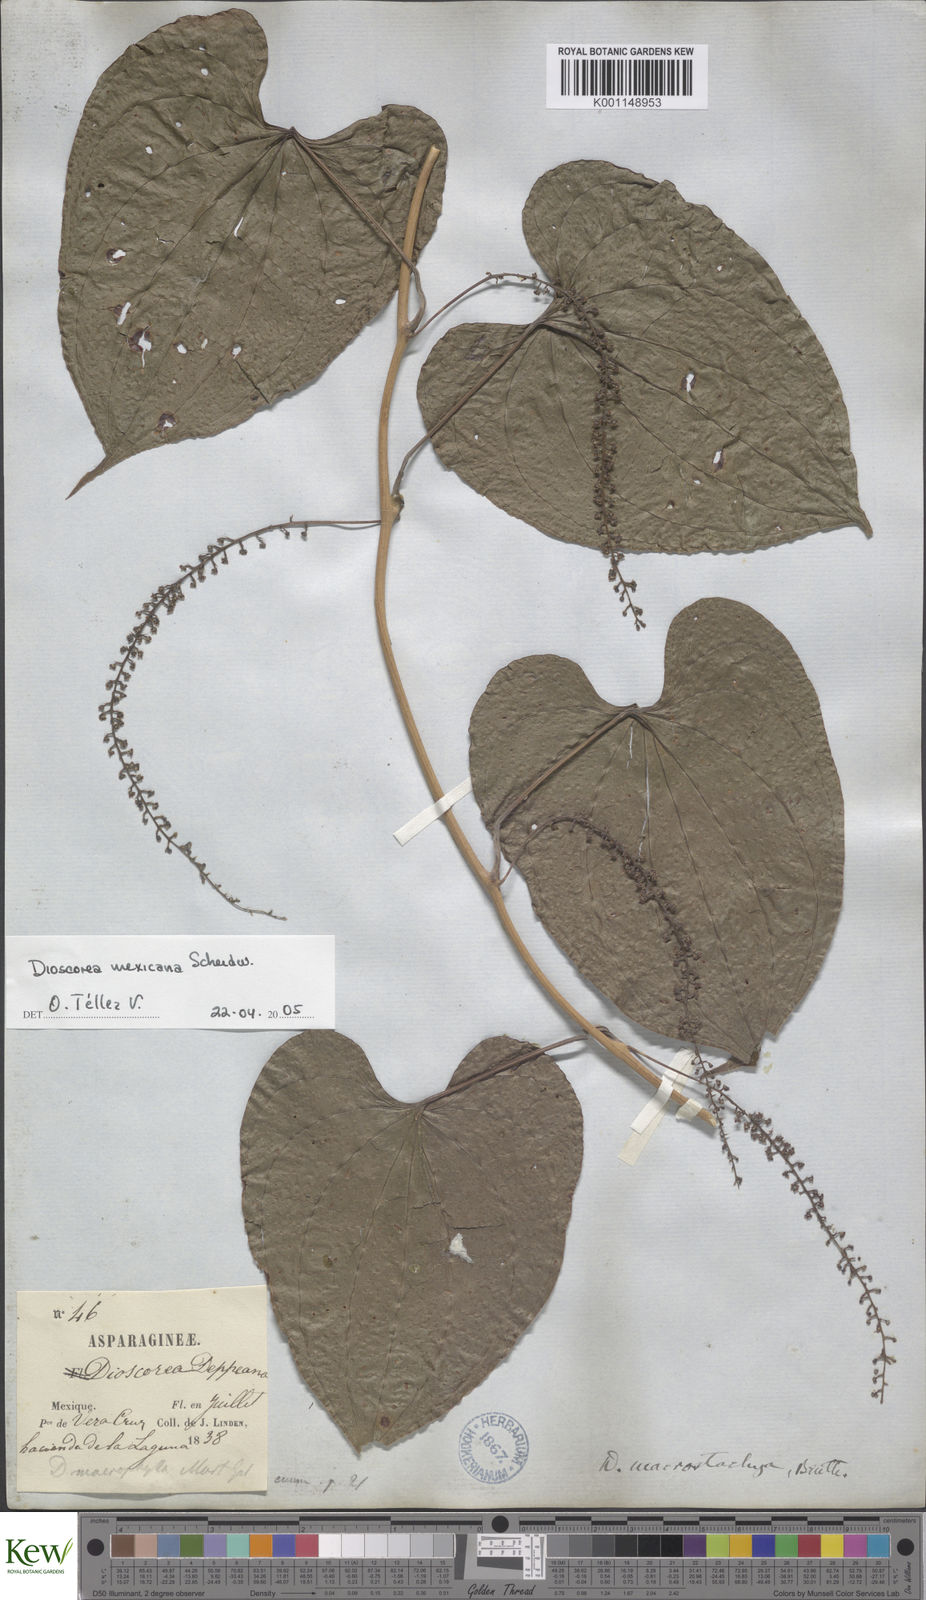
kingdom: Plantae
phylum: Tracheophyta
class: Liliopsida
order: Dioscoreales
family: Dioscoreaceae
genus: Dioscorea
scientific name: Dioscorea mexicana
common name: Mexican yam
